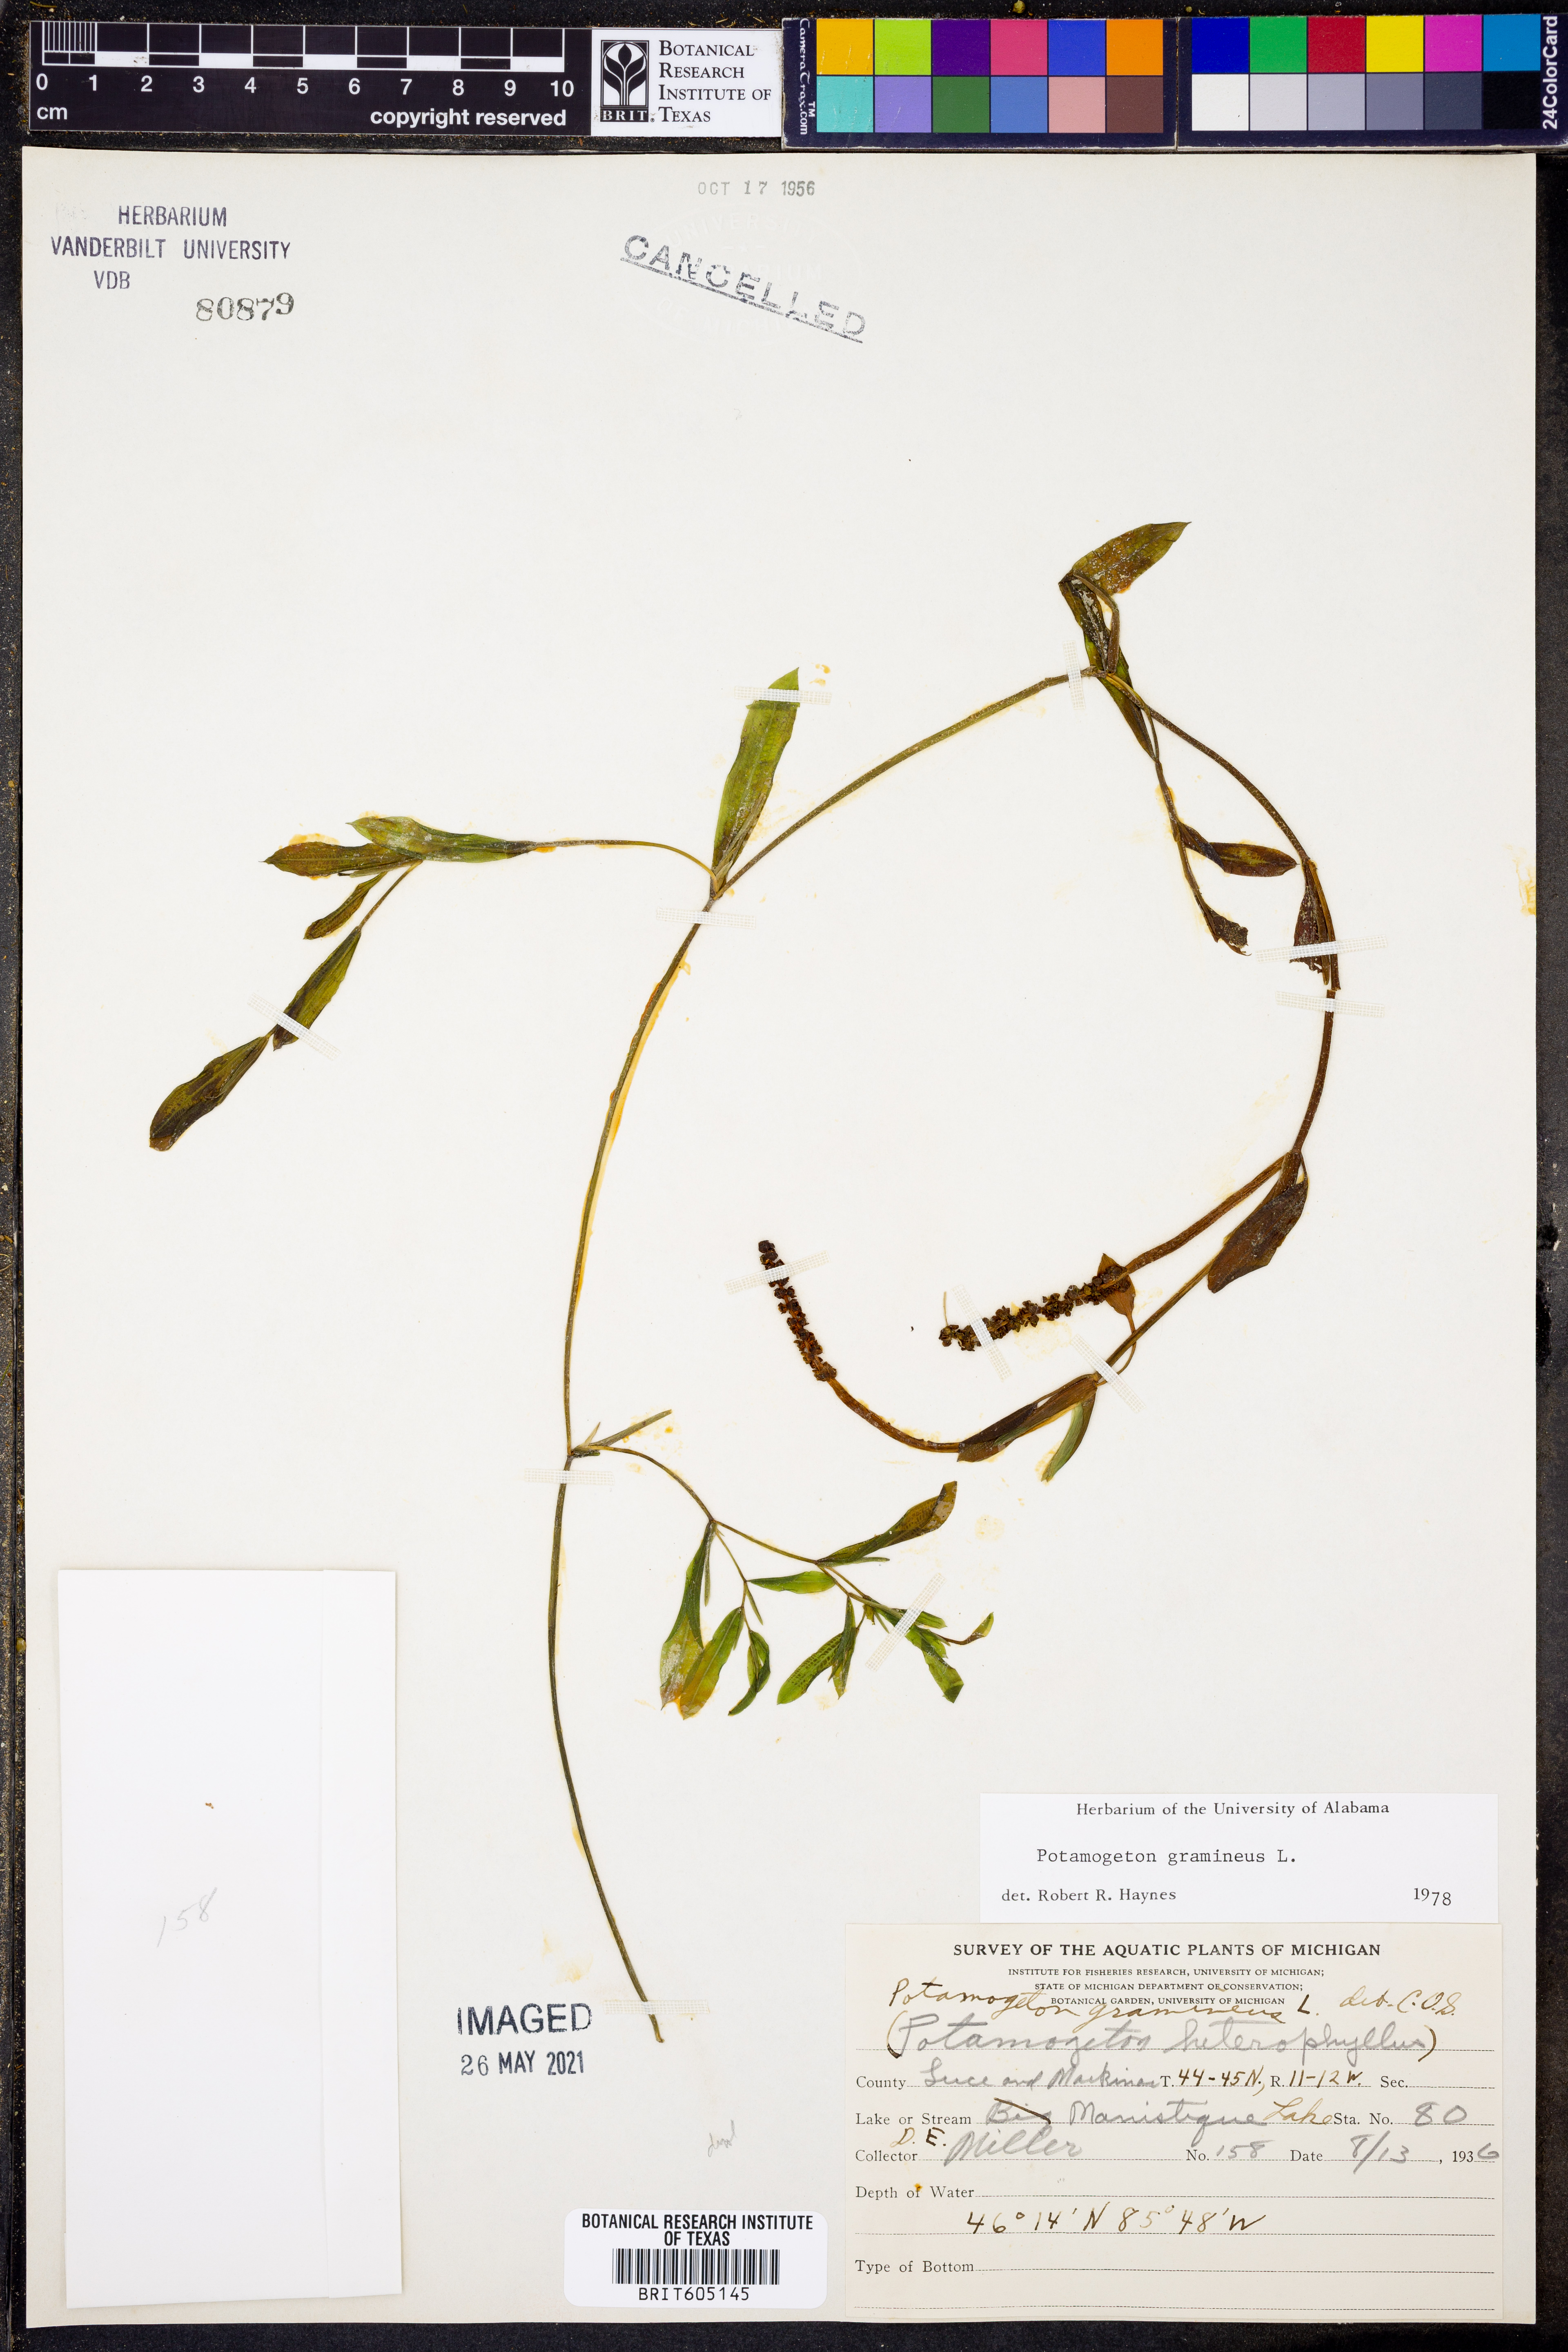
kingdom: Plantae
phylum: Tracheophyta
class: Liliopsida
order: Alismatales
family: Potamogetonaceae
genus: Potamogeton
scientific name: Potamogeton gramineus
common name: Various-leaved pondweed
